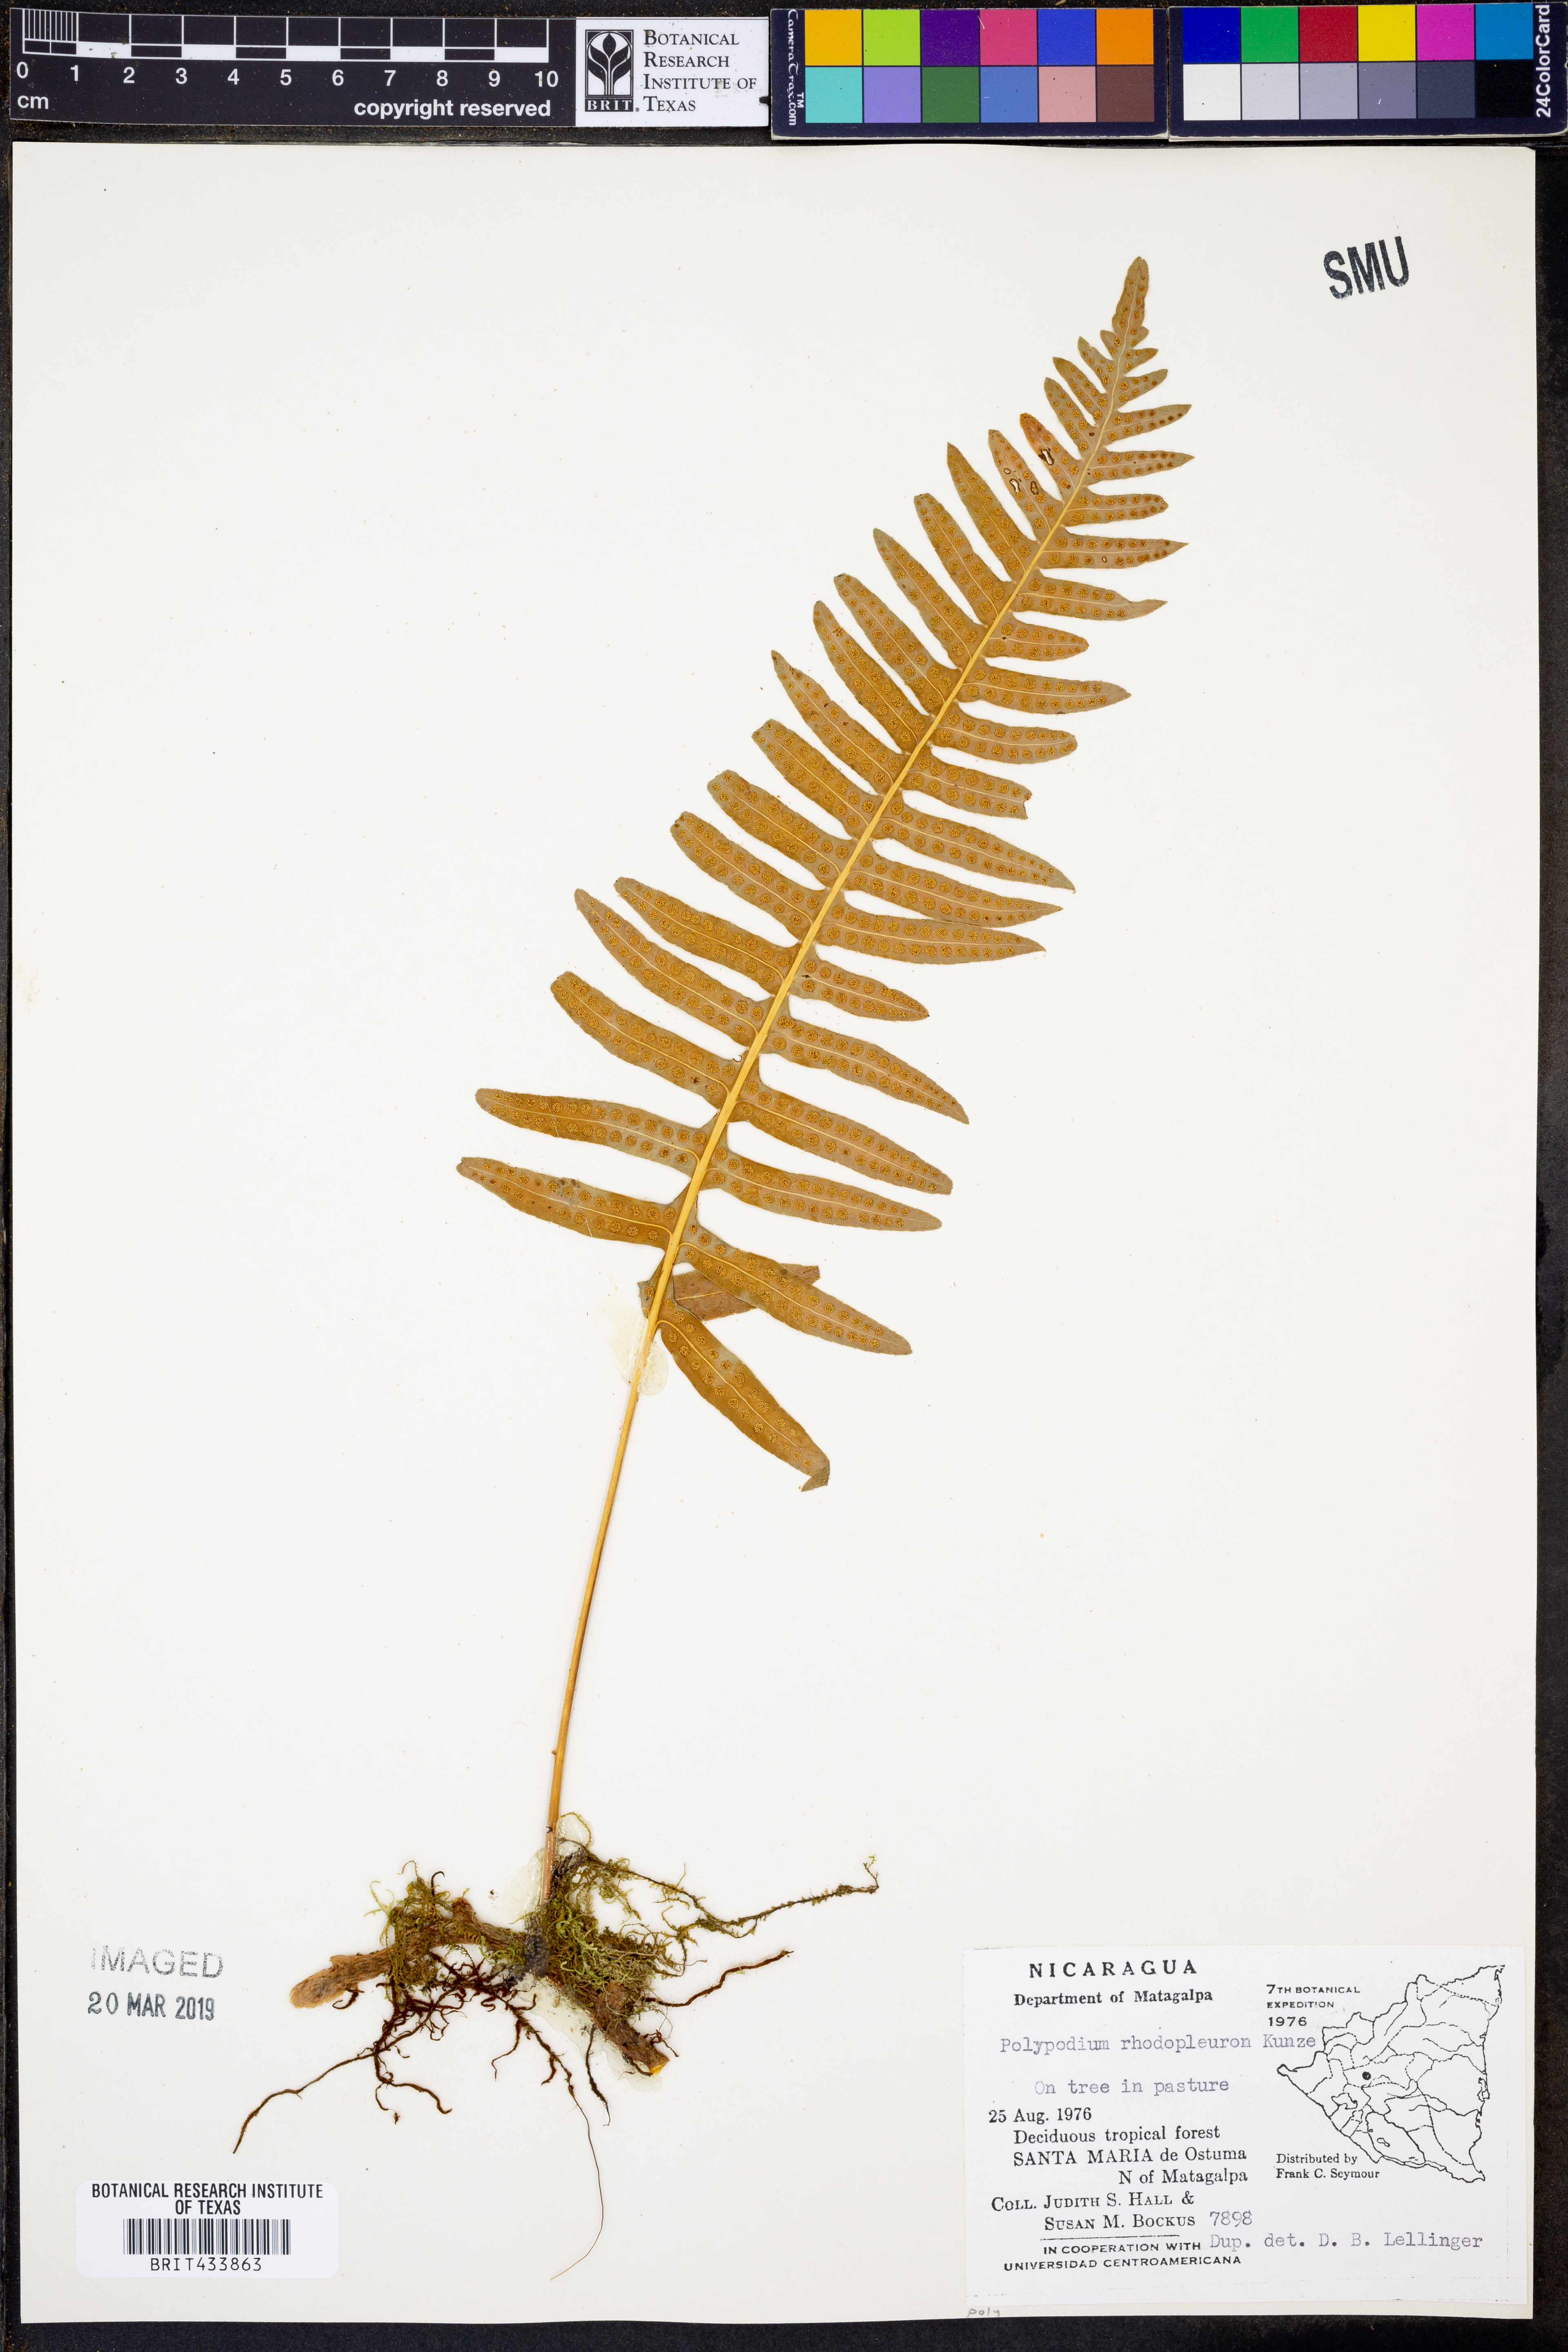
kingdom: Plantae
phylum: Tracheophyta
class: Polypodiopsida
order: Polypodiales
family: Polypodiaceae
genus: Polypodium
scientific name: Polypodium rhodopleuron
